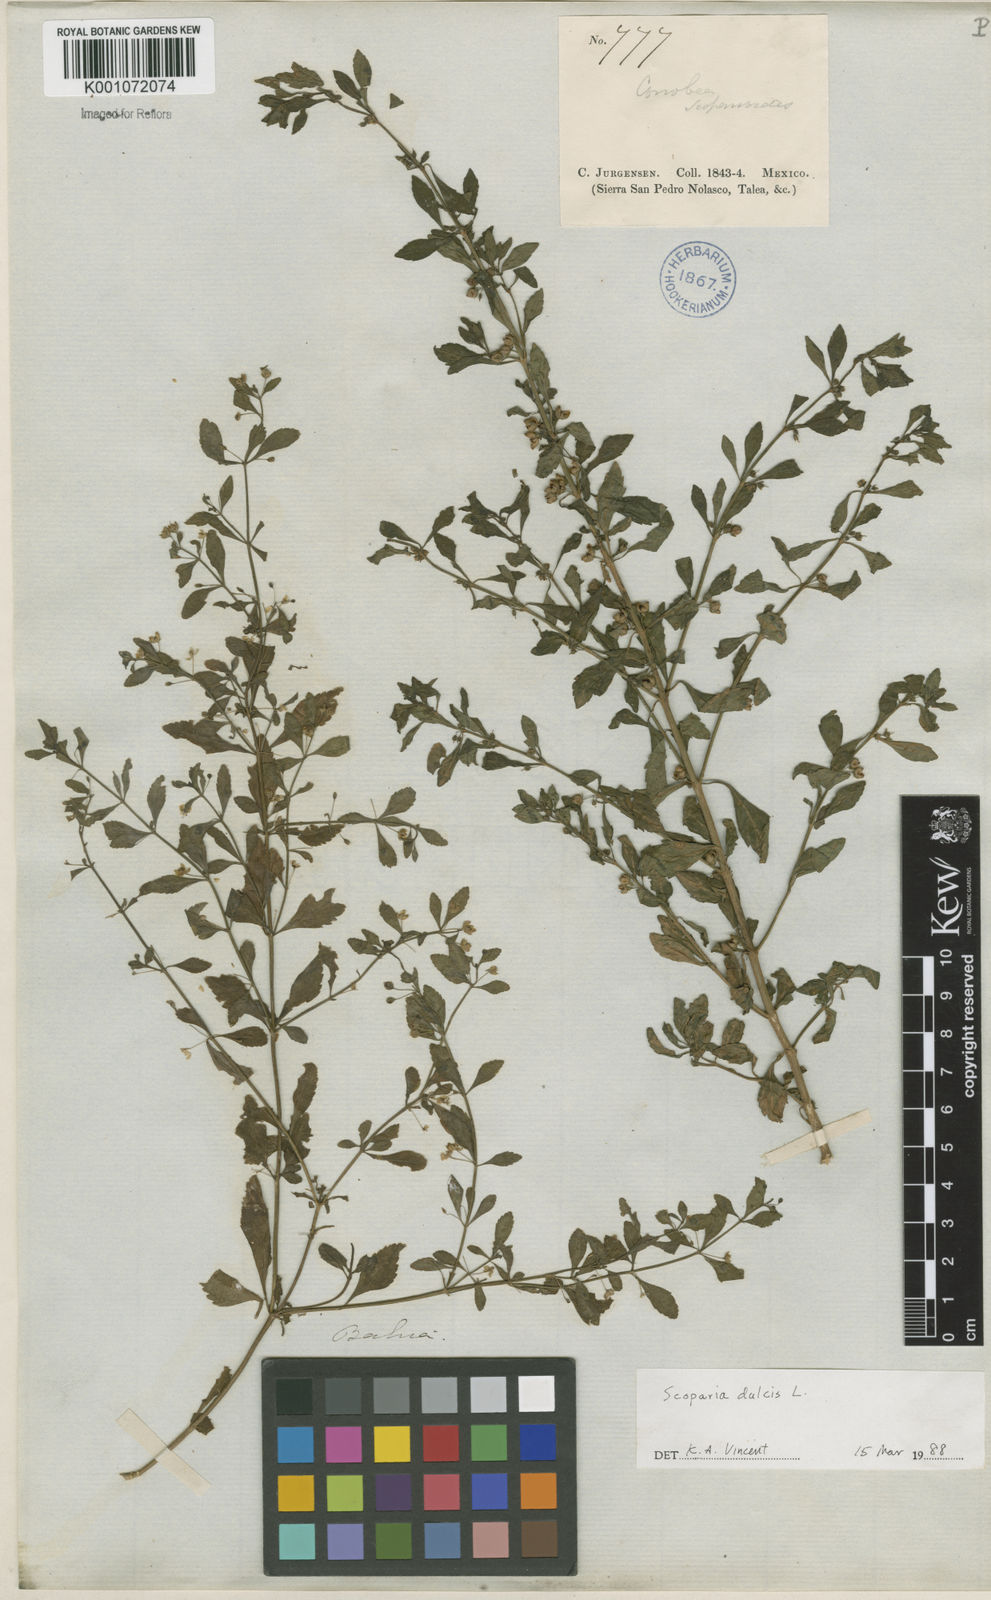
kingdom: Plantae
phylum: Tracheophyta
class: Magnoliopsida
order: Lamiales
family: Plantaginaceae
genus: Scoparia
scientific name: Scoparia dulcis
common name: Scoparia-weed
